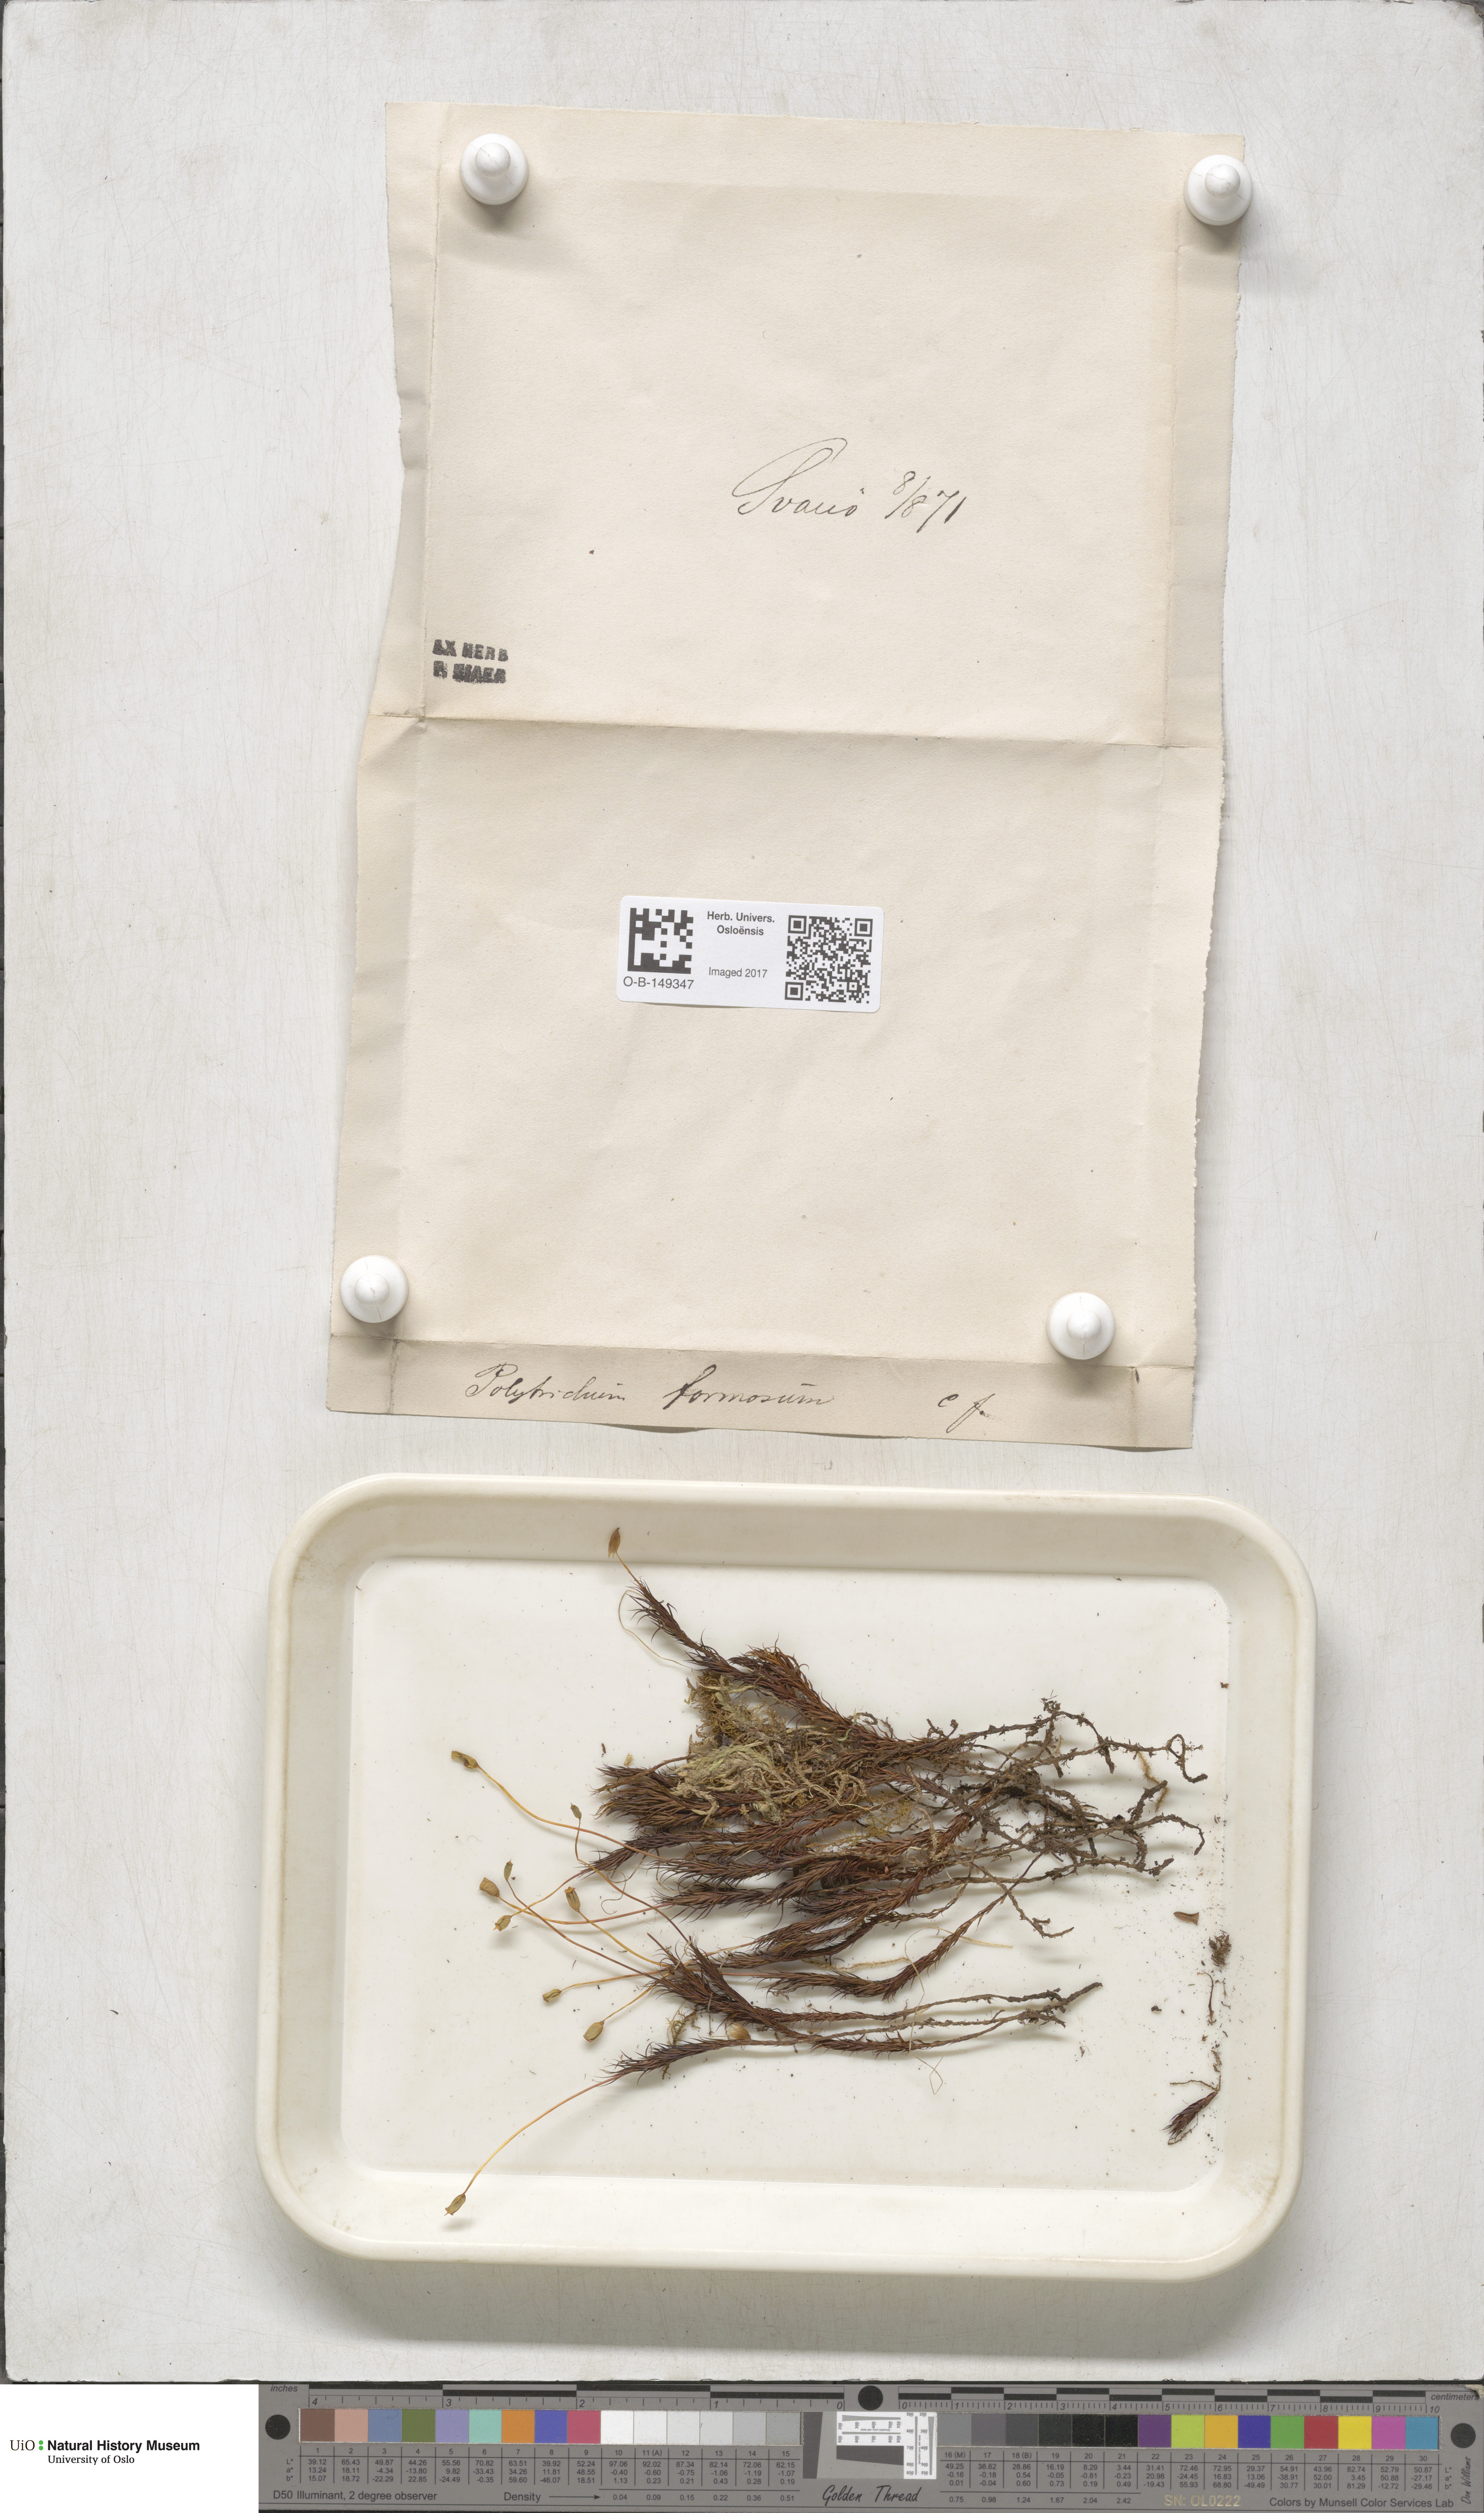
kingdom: Plantae
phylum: Bryophyta
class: Polytrichopsida
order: Polytrichales
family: Polytrichaceae
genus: Polytrichum
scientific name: Polytrichum formosum
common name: Bank haircap moss
